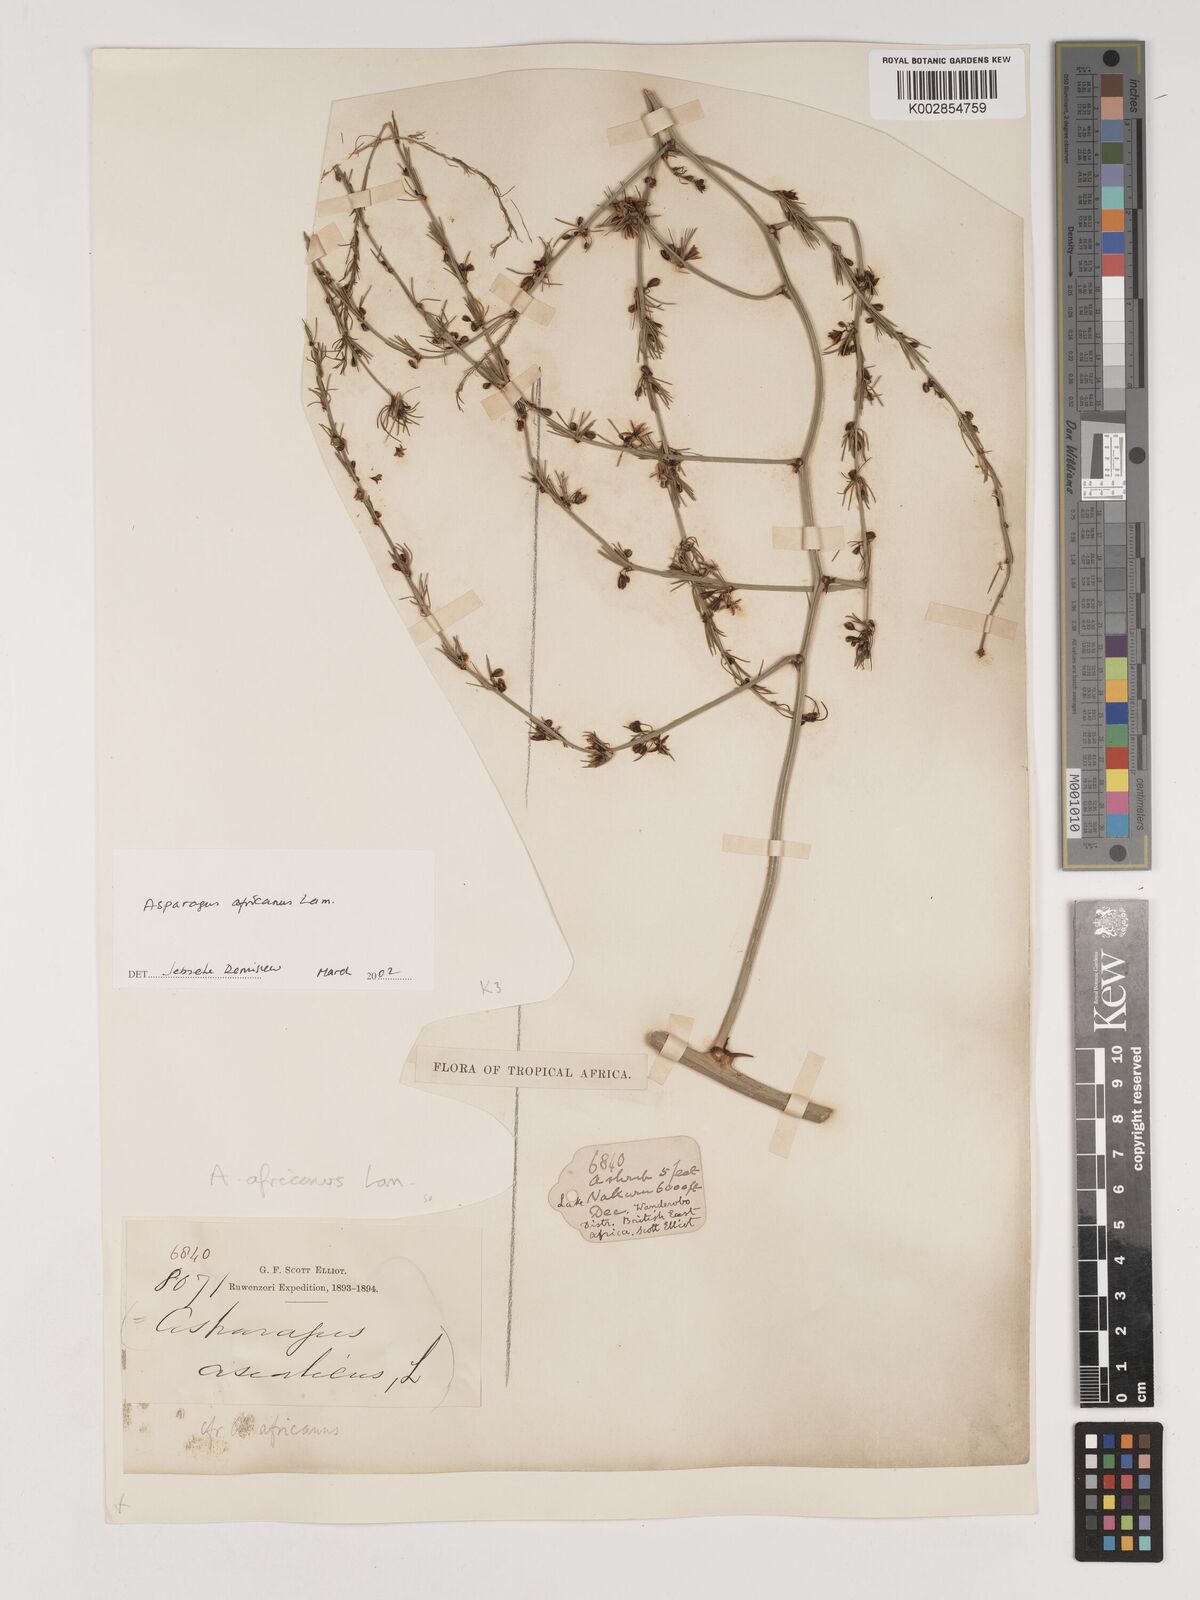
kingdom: Plantae
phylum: Tracheophyta
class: Liliopsida
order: Asparagales
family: Asparagaceae
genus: Asparagus
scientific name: Asparagus africanus
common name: Asparagus-fern
